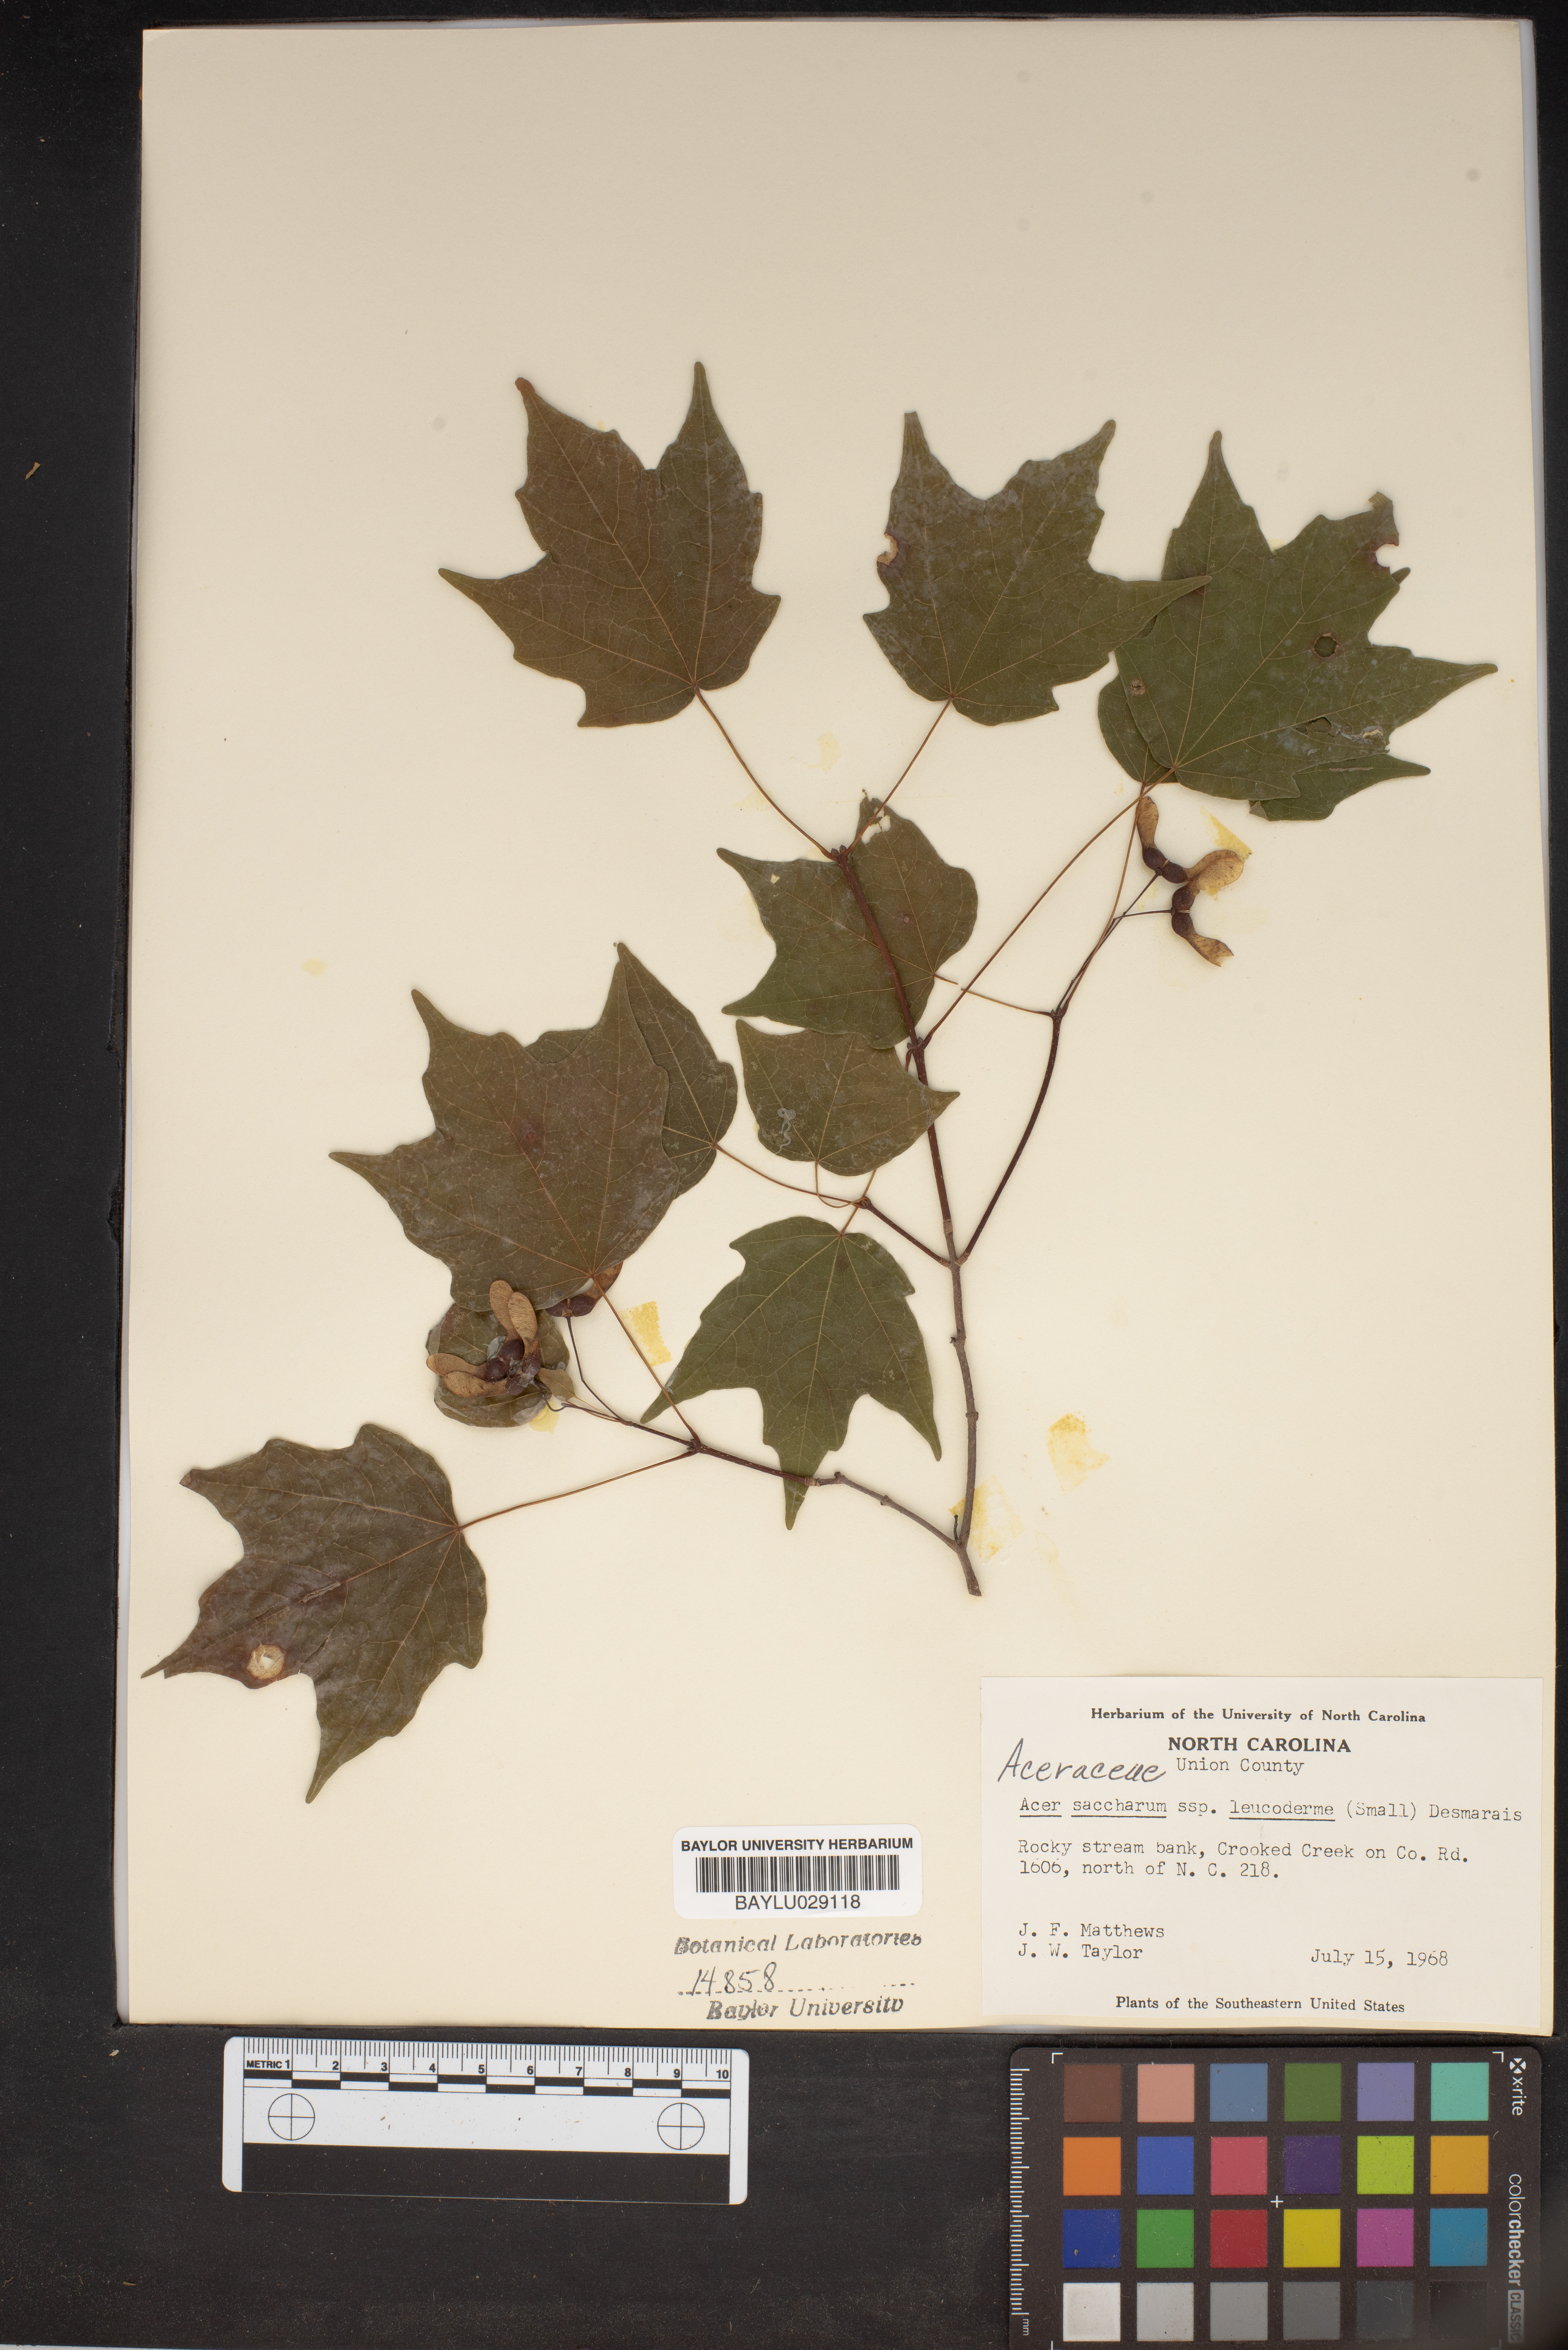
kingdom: Plantae
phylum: Tracheophyta
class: Magnoliopsida
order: Sapindales
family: Sapindaceae
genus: Acer
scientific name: Acer leucoderme
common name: Chalk maple
